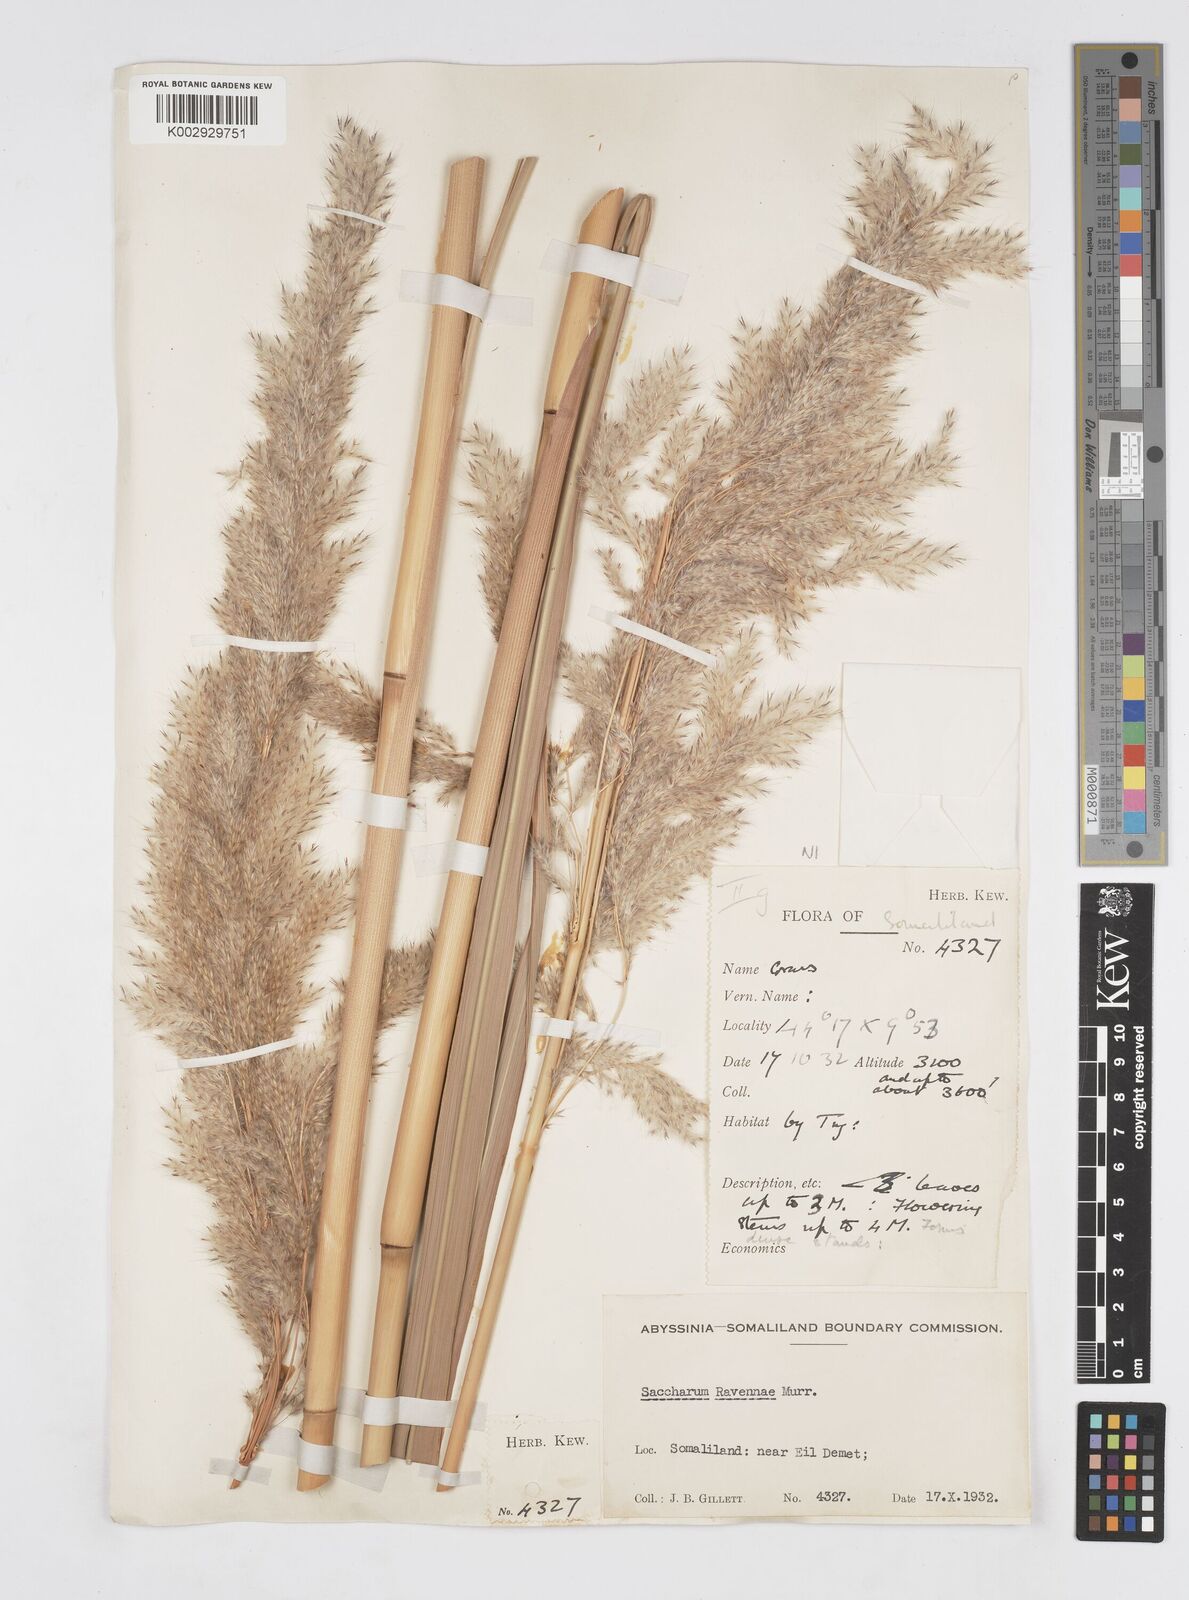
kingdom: Plantae
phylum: Tracheophyta
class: Liliopsida
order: Poales
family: Poaceae
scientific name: Poaceae
